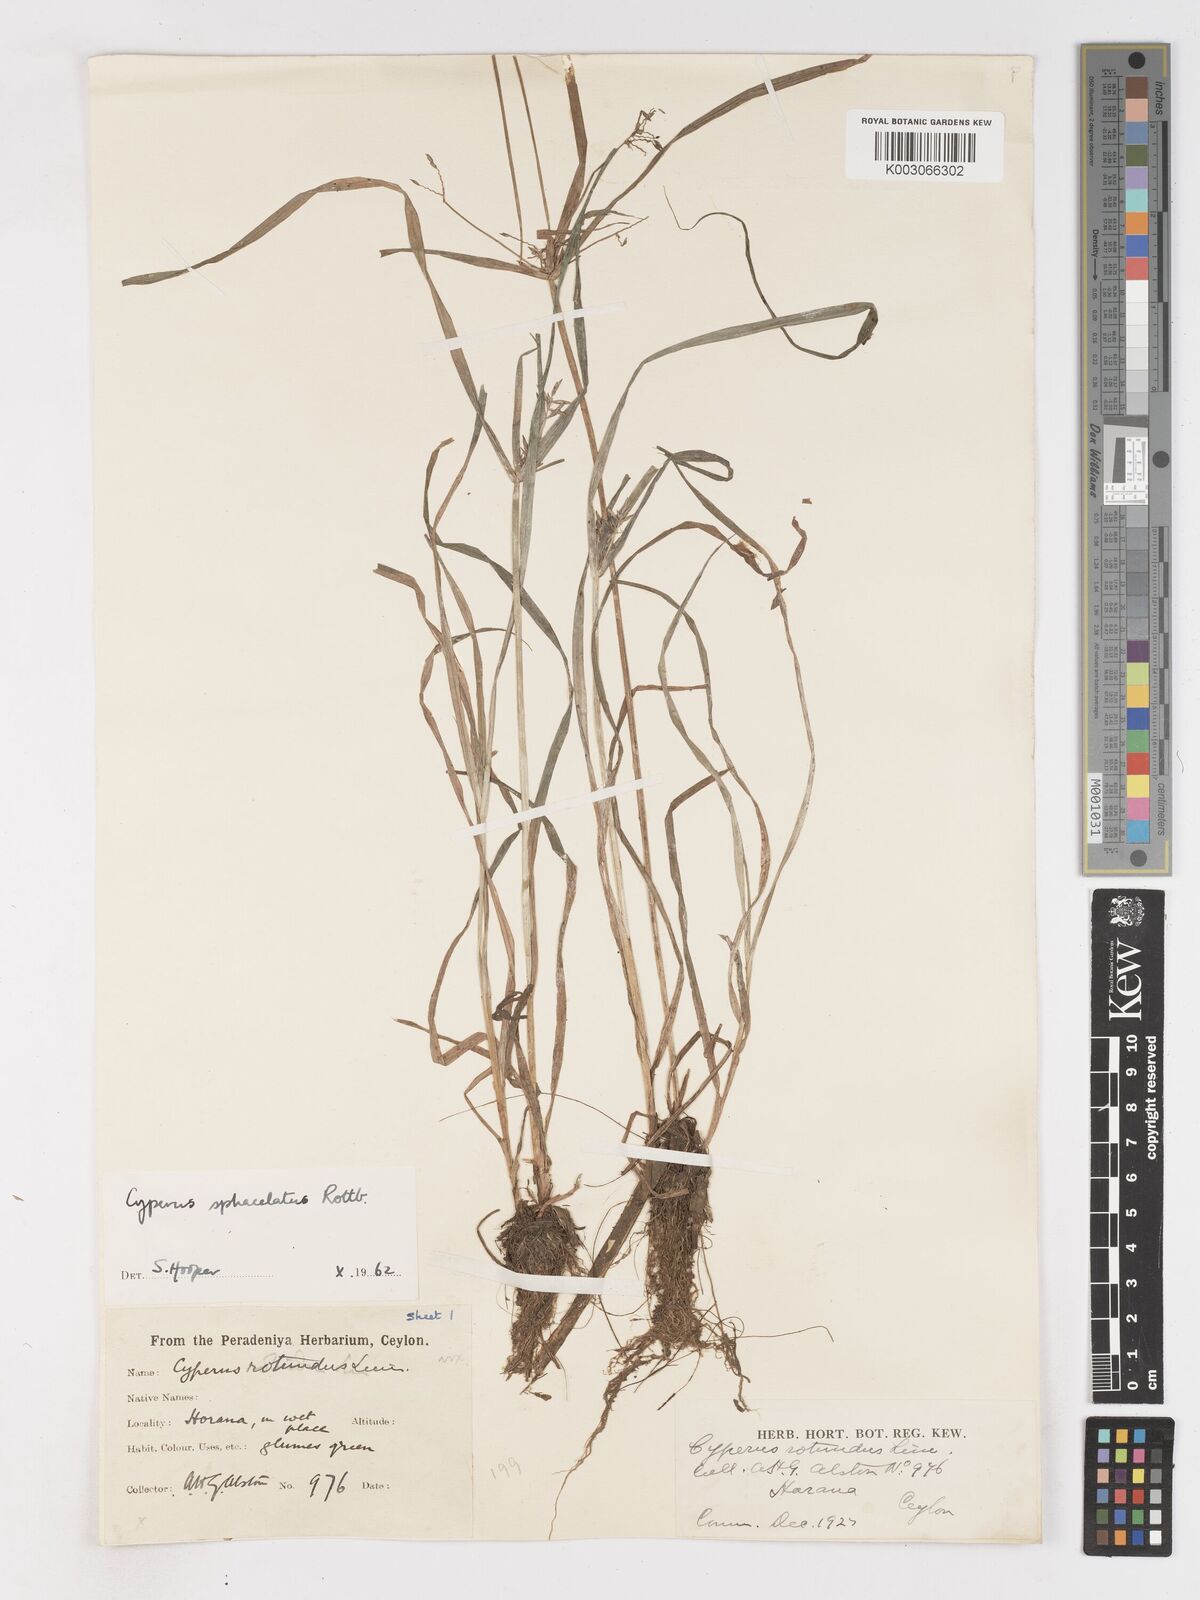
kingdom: Plantae
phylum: Tracheophyta
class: Liliopsida
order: Poales
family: Cyperaceae
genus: Cyperus
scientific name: Cyperus sphacelatus
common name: Roadside flatsedge
